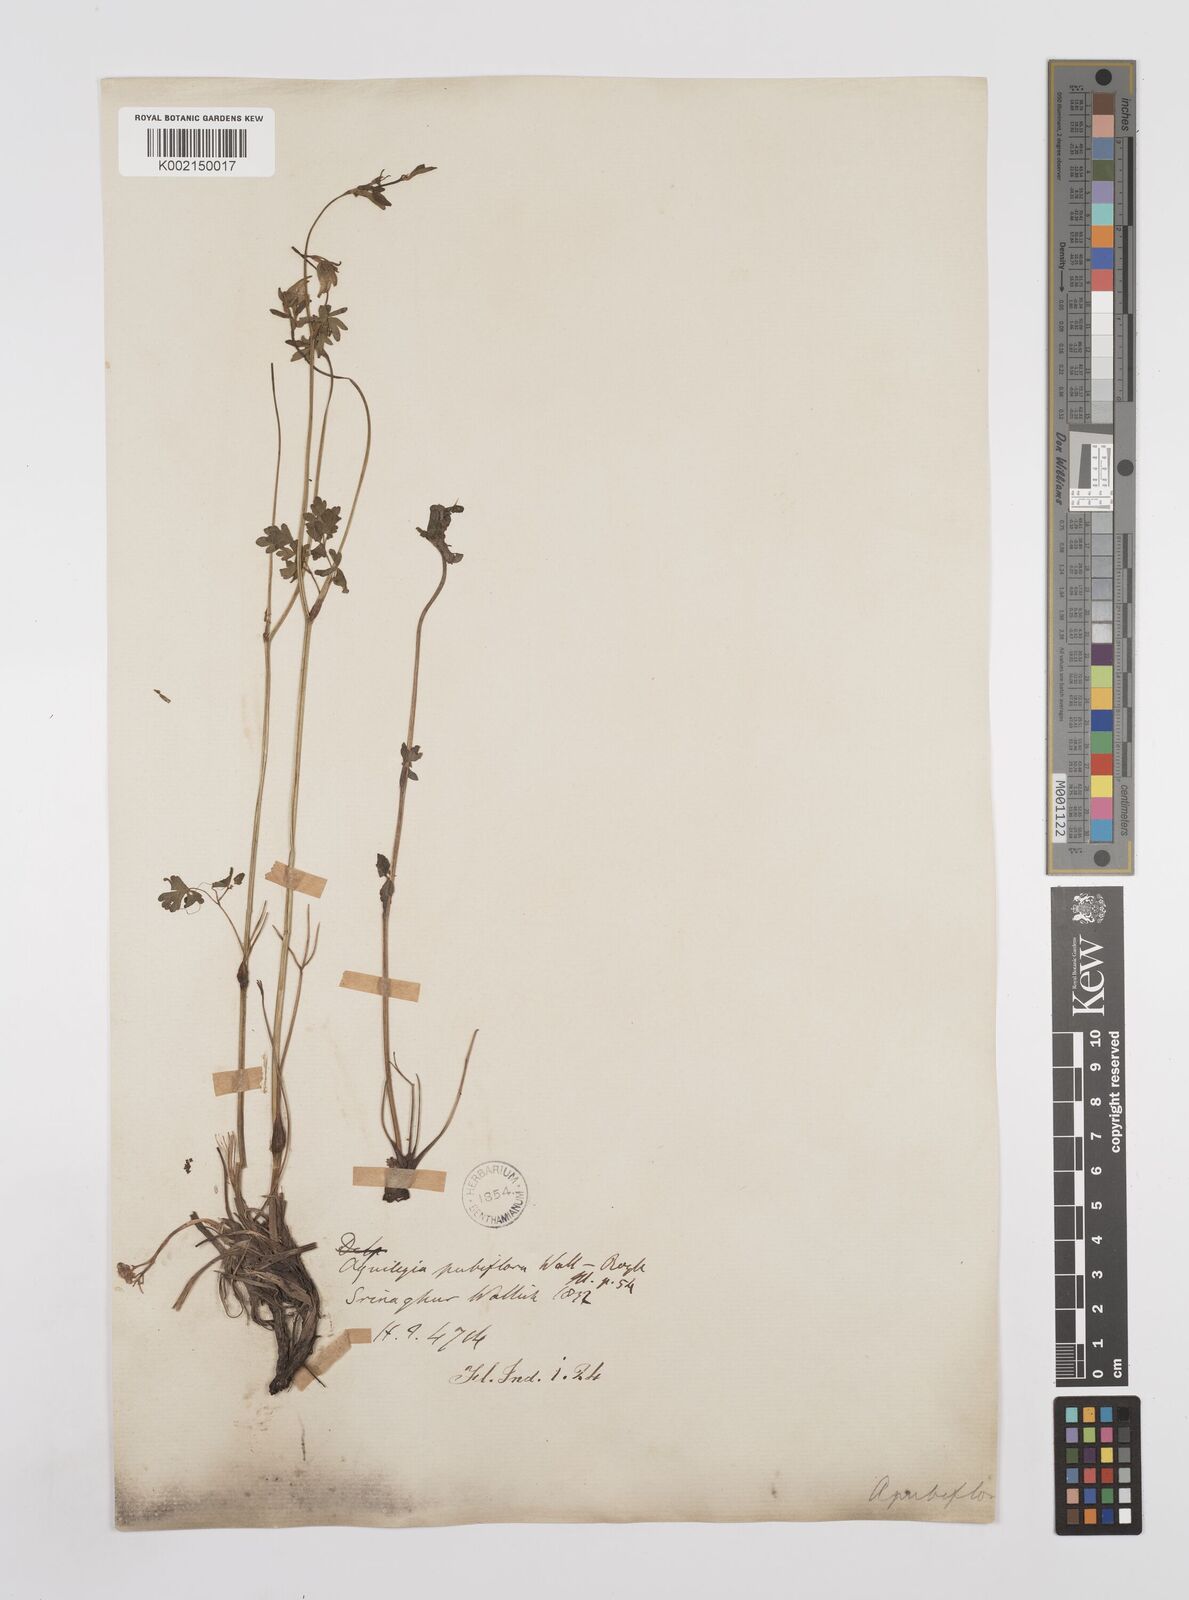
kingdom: Plantae
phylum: Tracheophyta
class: Magnoliopsida
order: Ranunculales
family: Ranunculaceae
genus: Aquilegia
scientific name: Aquilegia pubiflora
